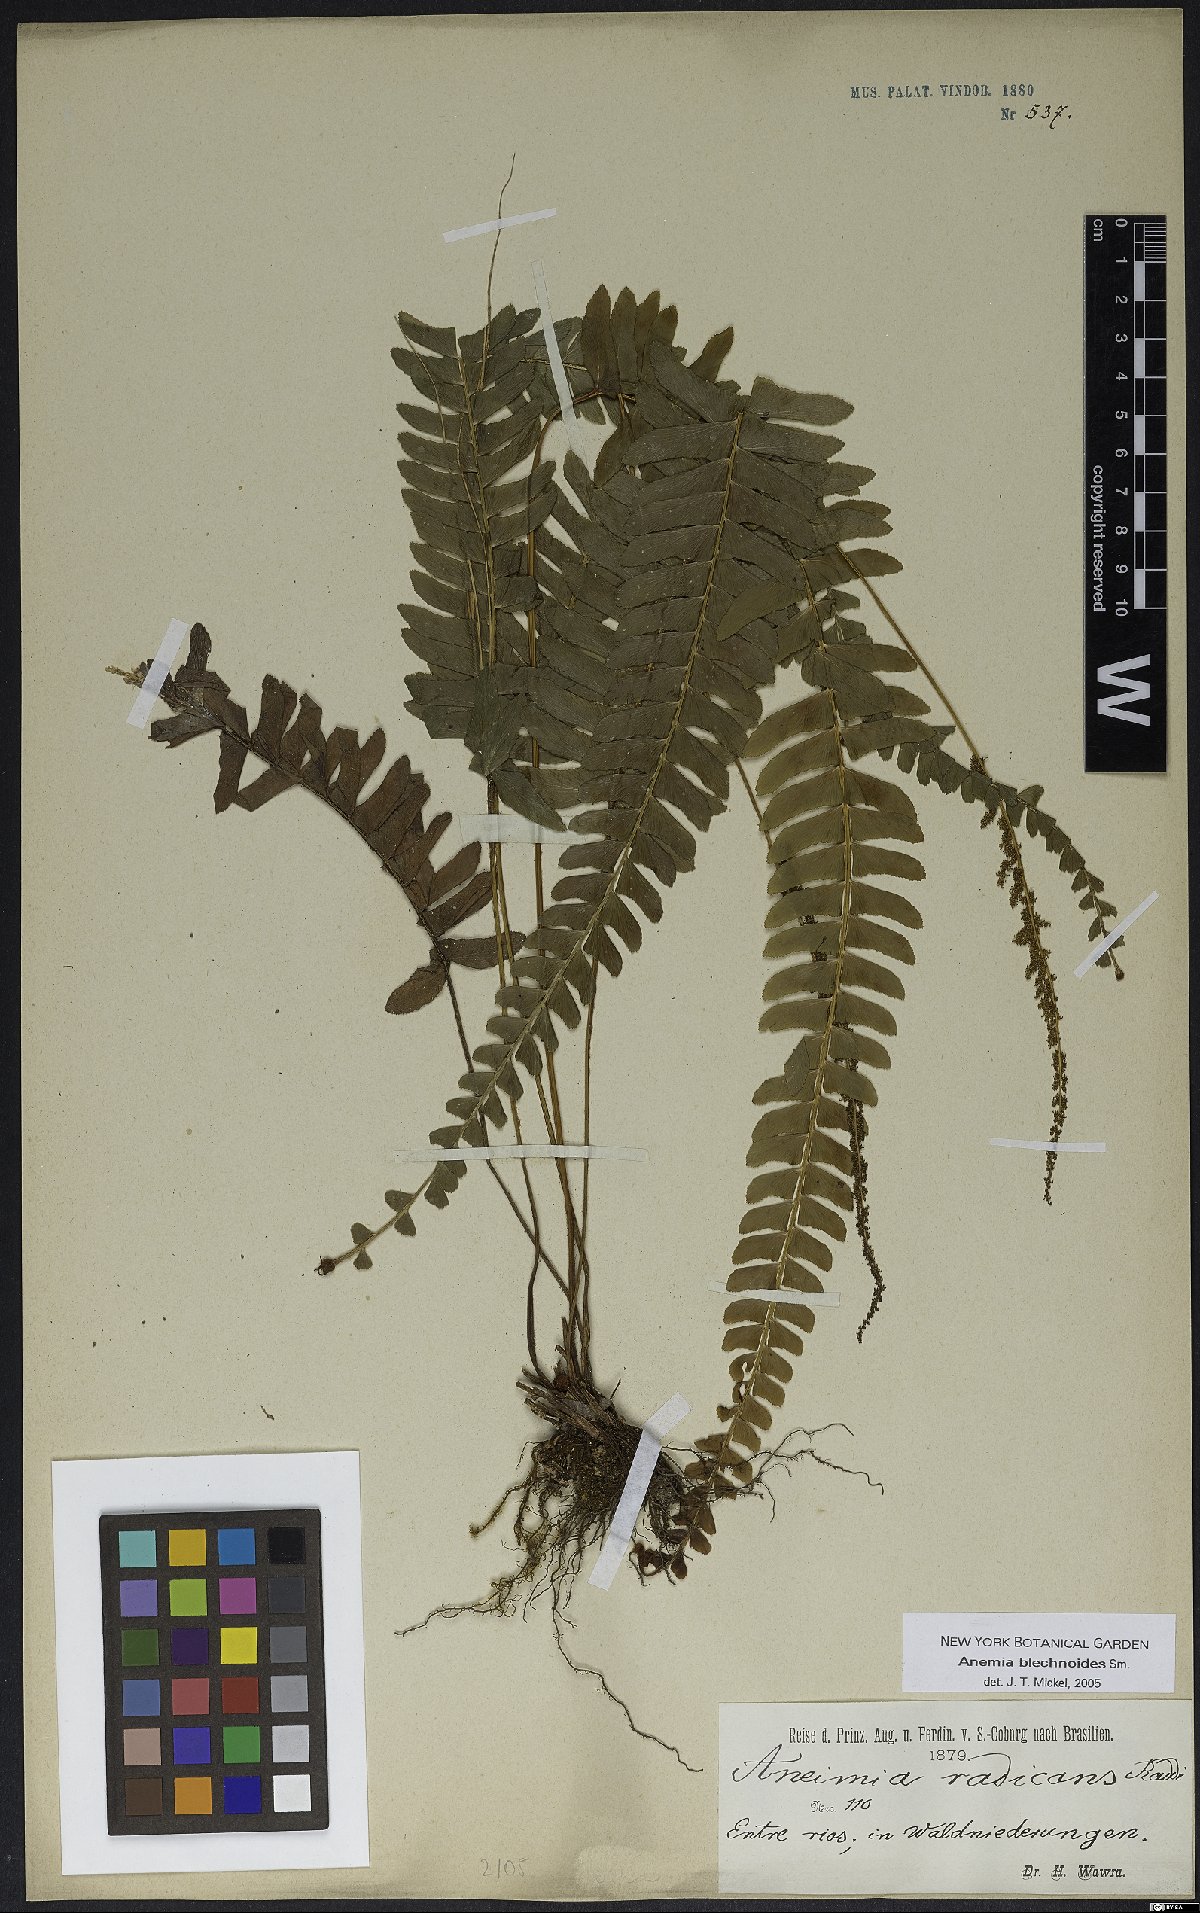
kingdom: Plantae
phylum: Tracheophyta
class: Polypodiopsida
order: Schizaeales
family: Anemiaceae
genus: Anemia
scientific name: Anemia spicantoides
